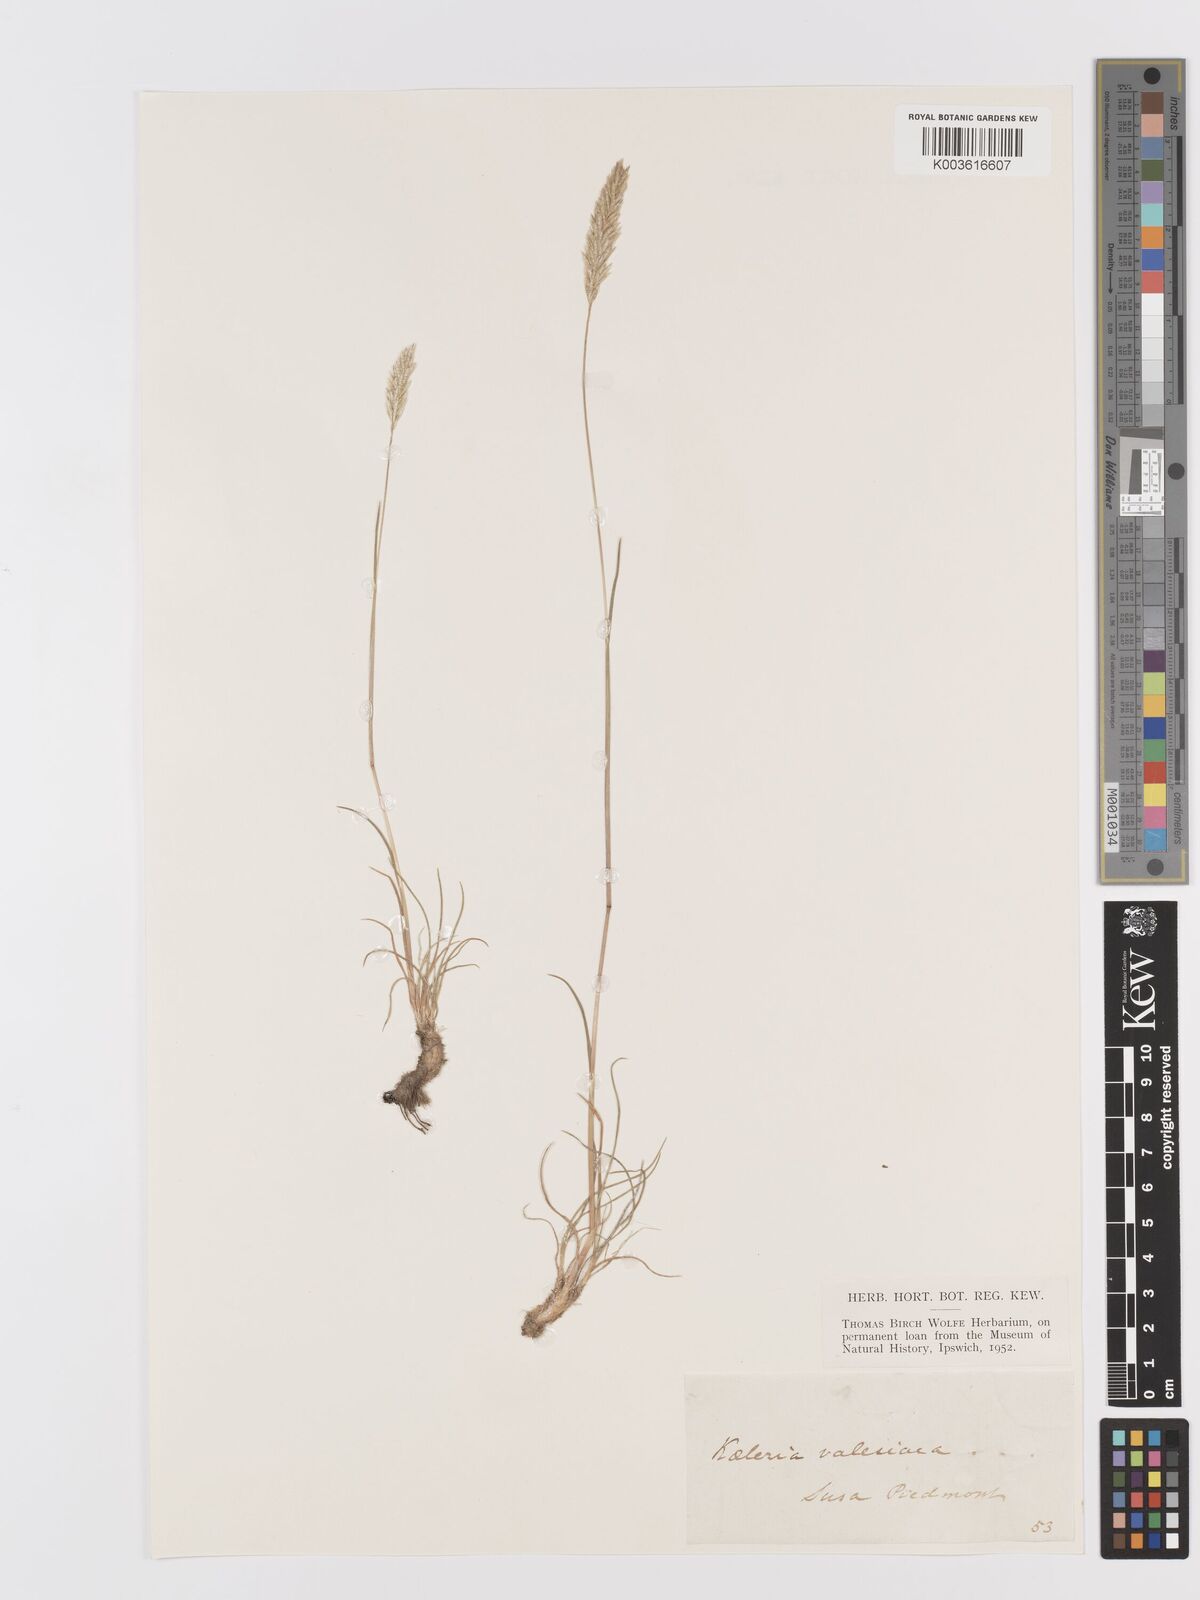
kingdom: Plantae
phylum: Tracheophyta
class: Liliopsida
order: Poales
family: Poaceae
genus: Koeleria
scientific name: Koeleria vallesiana
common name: Somerset hair-grass
